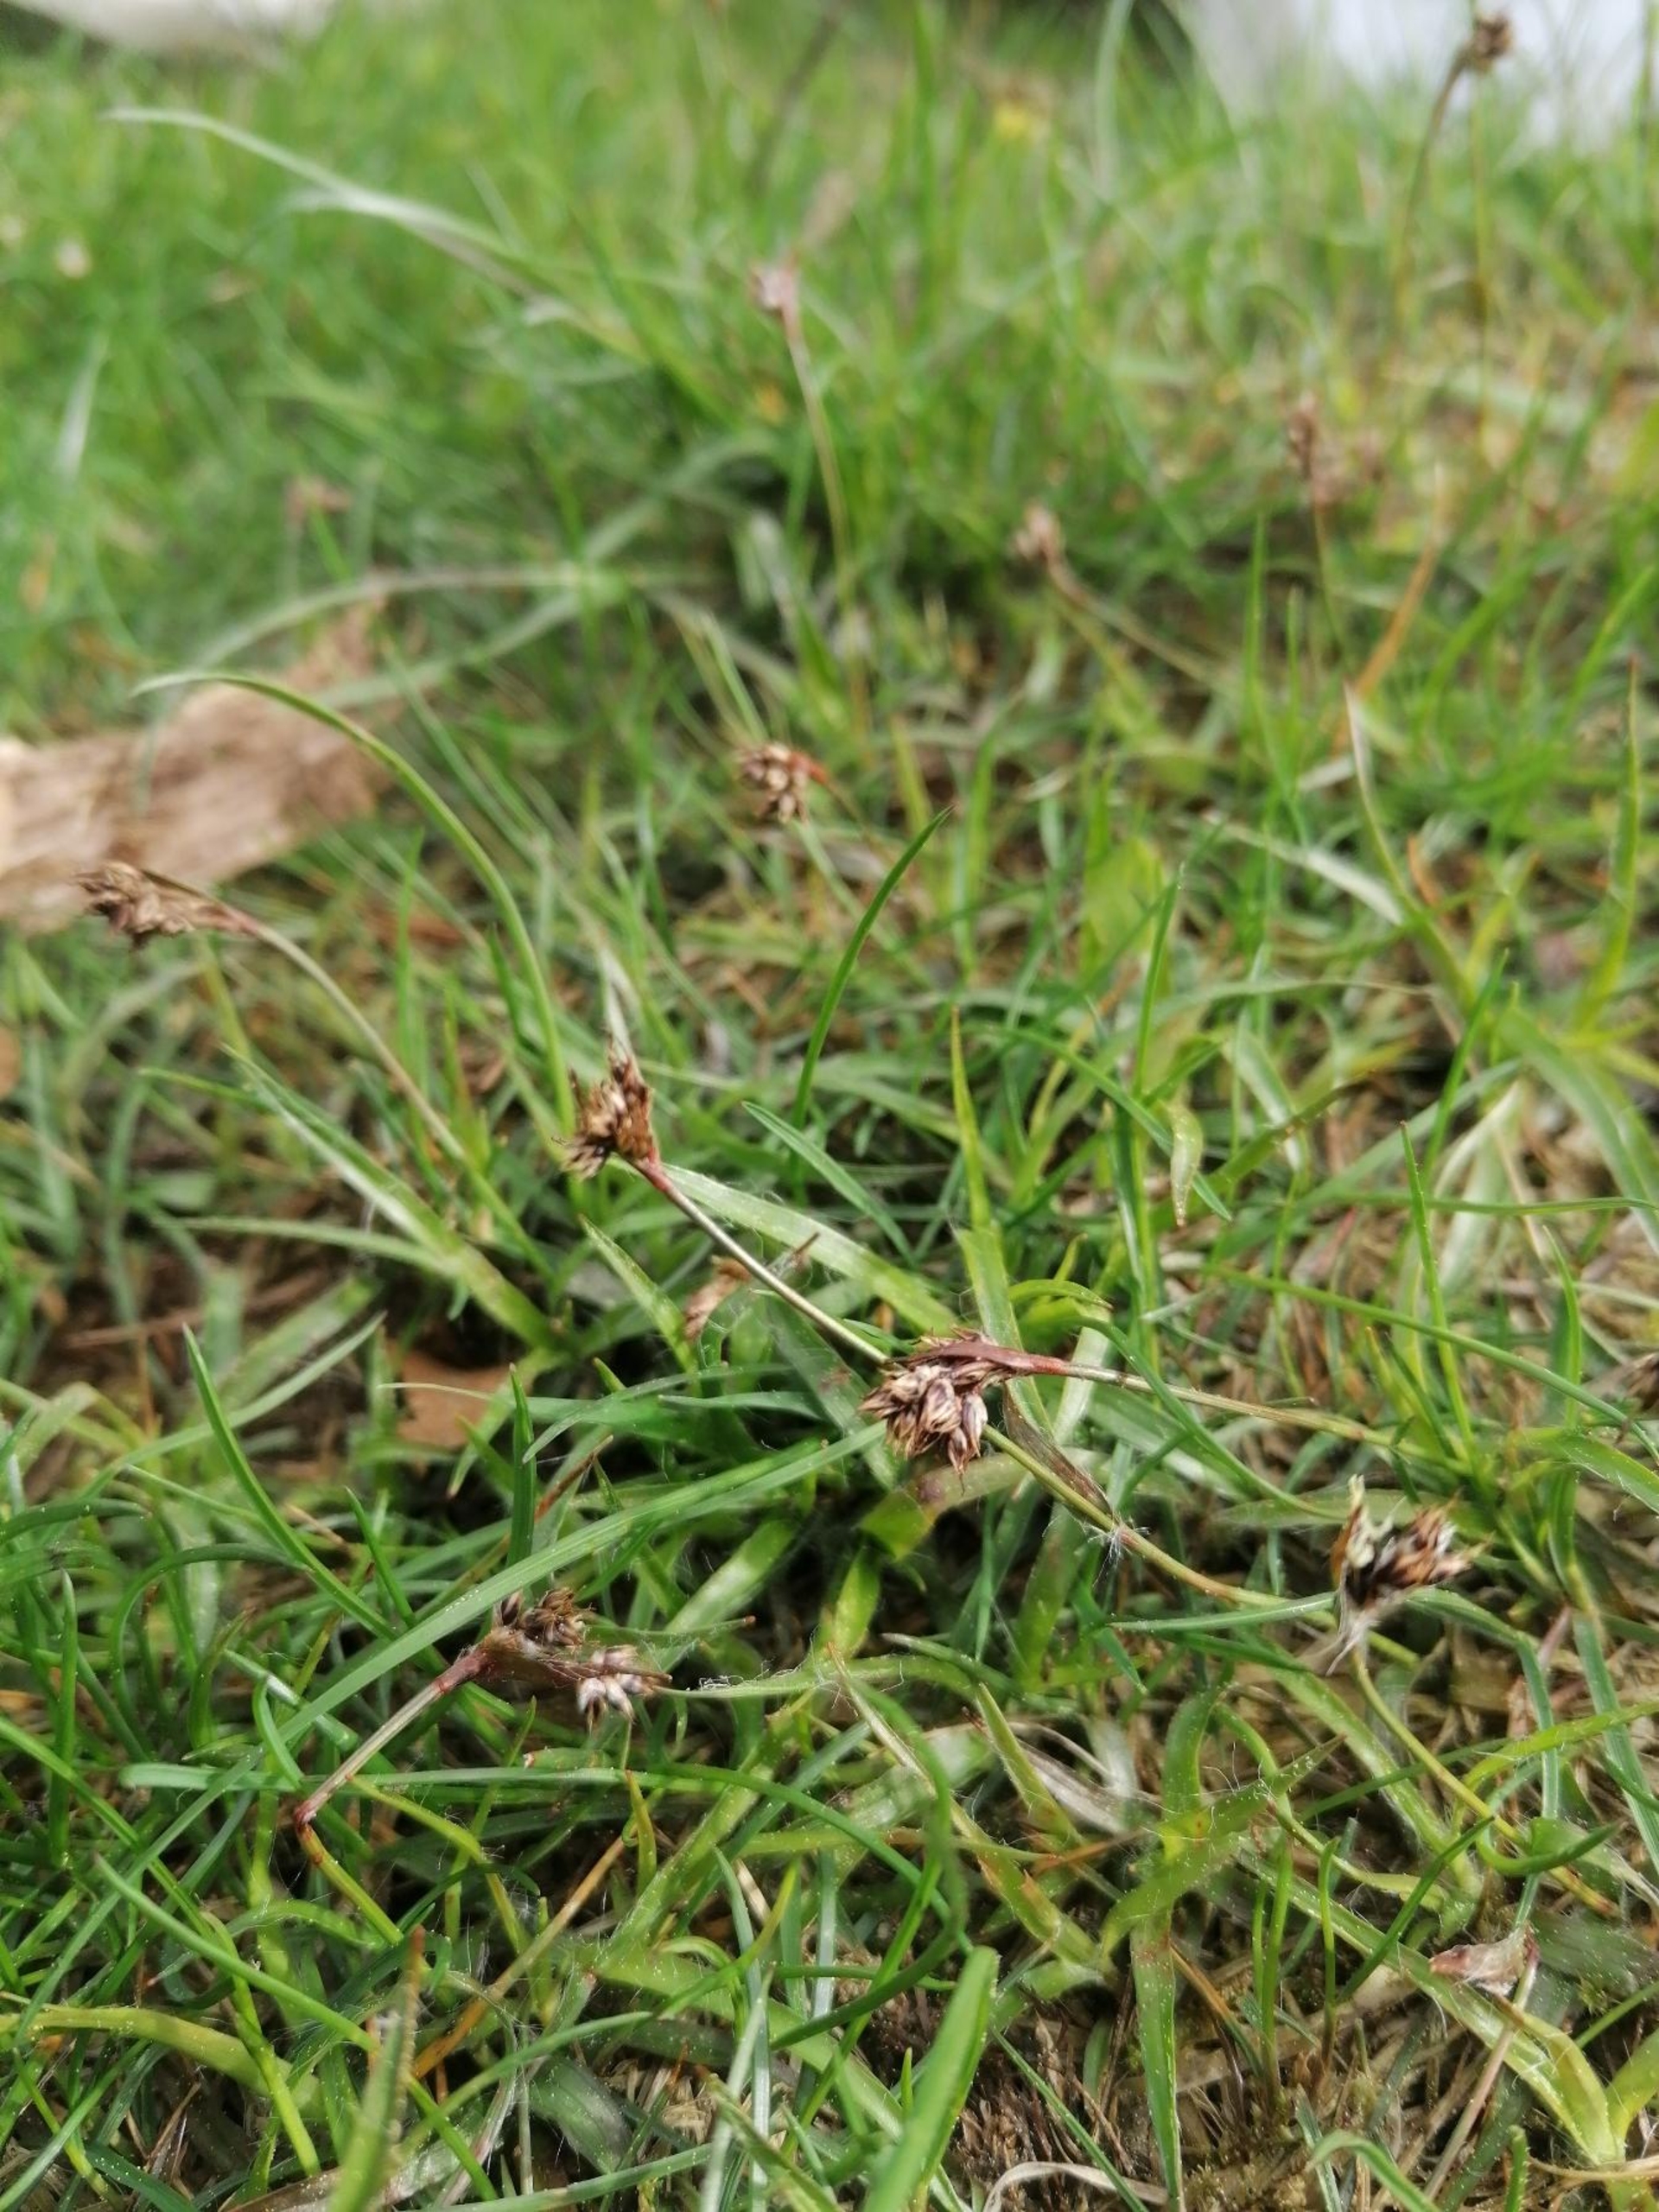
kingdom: Plantae
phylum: Tracheophyta
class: Liliopsida
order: Poales
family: Juncaceae
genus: Luzula
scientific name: Luzula campestris
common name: Mark-frytle
